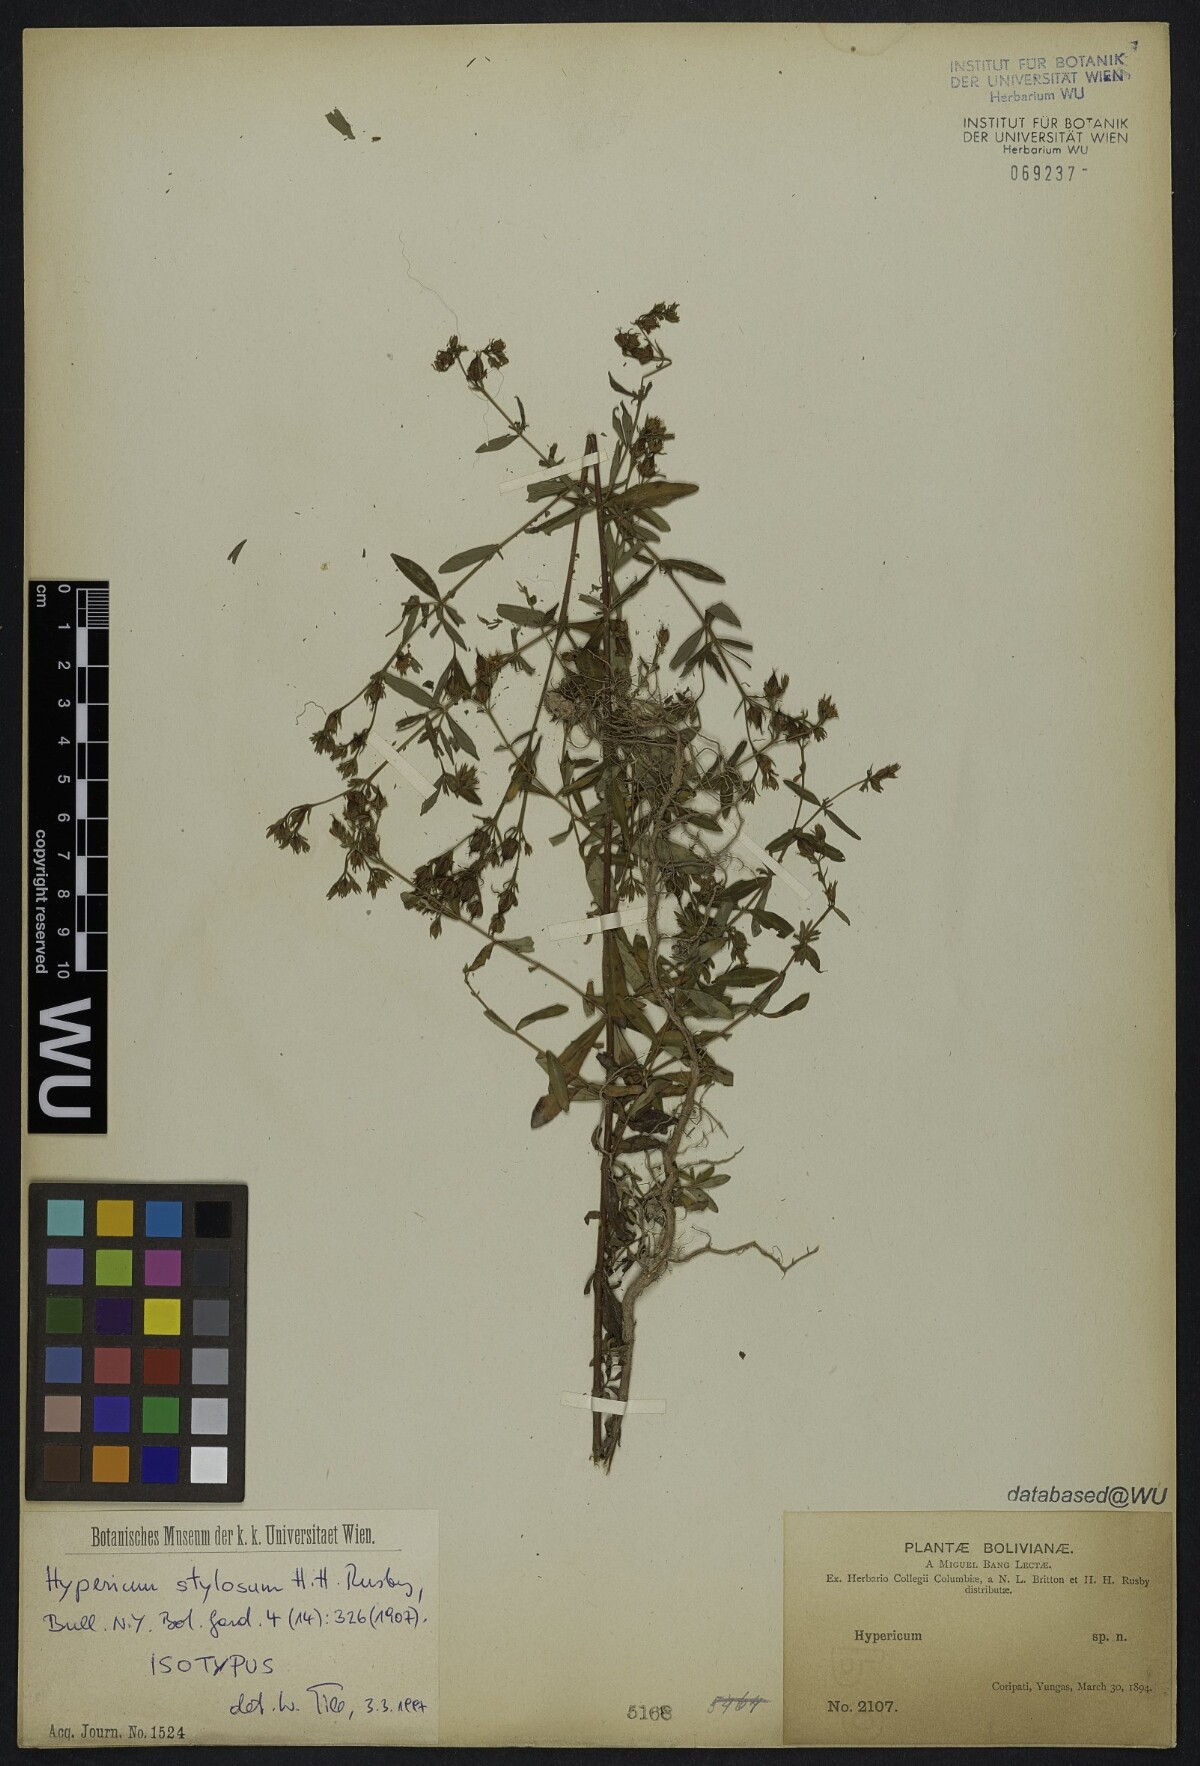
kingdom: Plantae
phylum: Tracheophyta
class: Magnoliopsida
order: Malpighiales
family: Hypericaceae
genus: Hypericum
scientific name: Hypericum brasiliense
